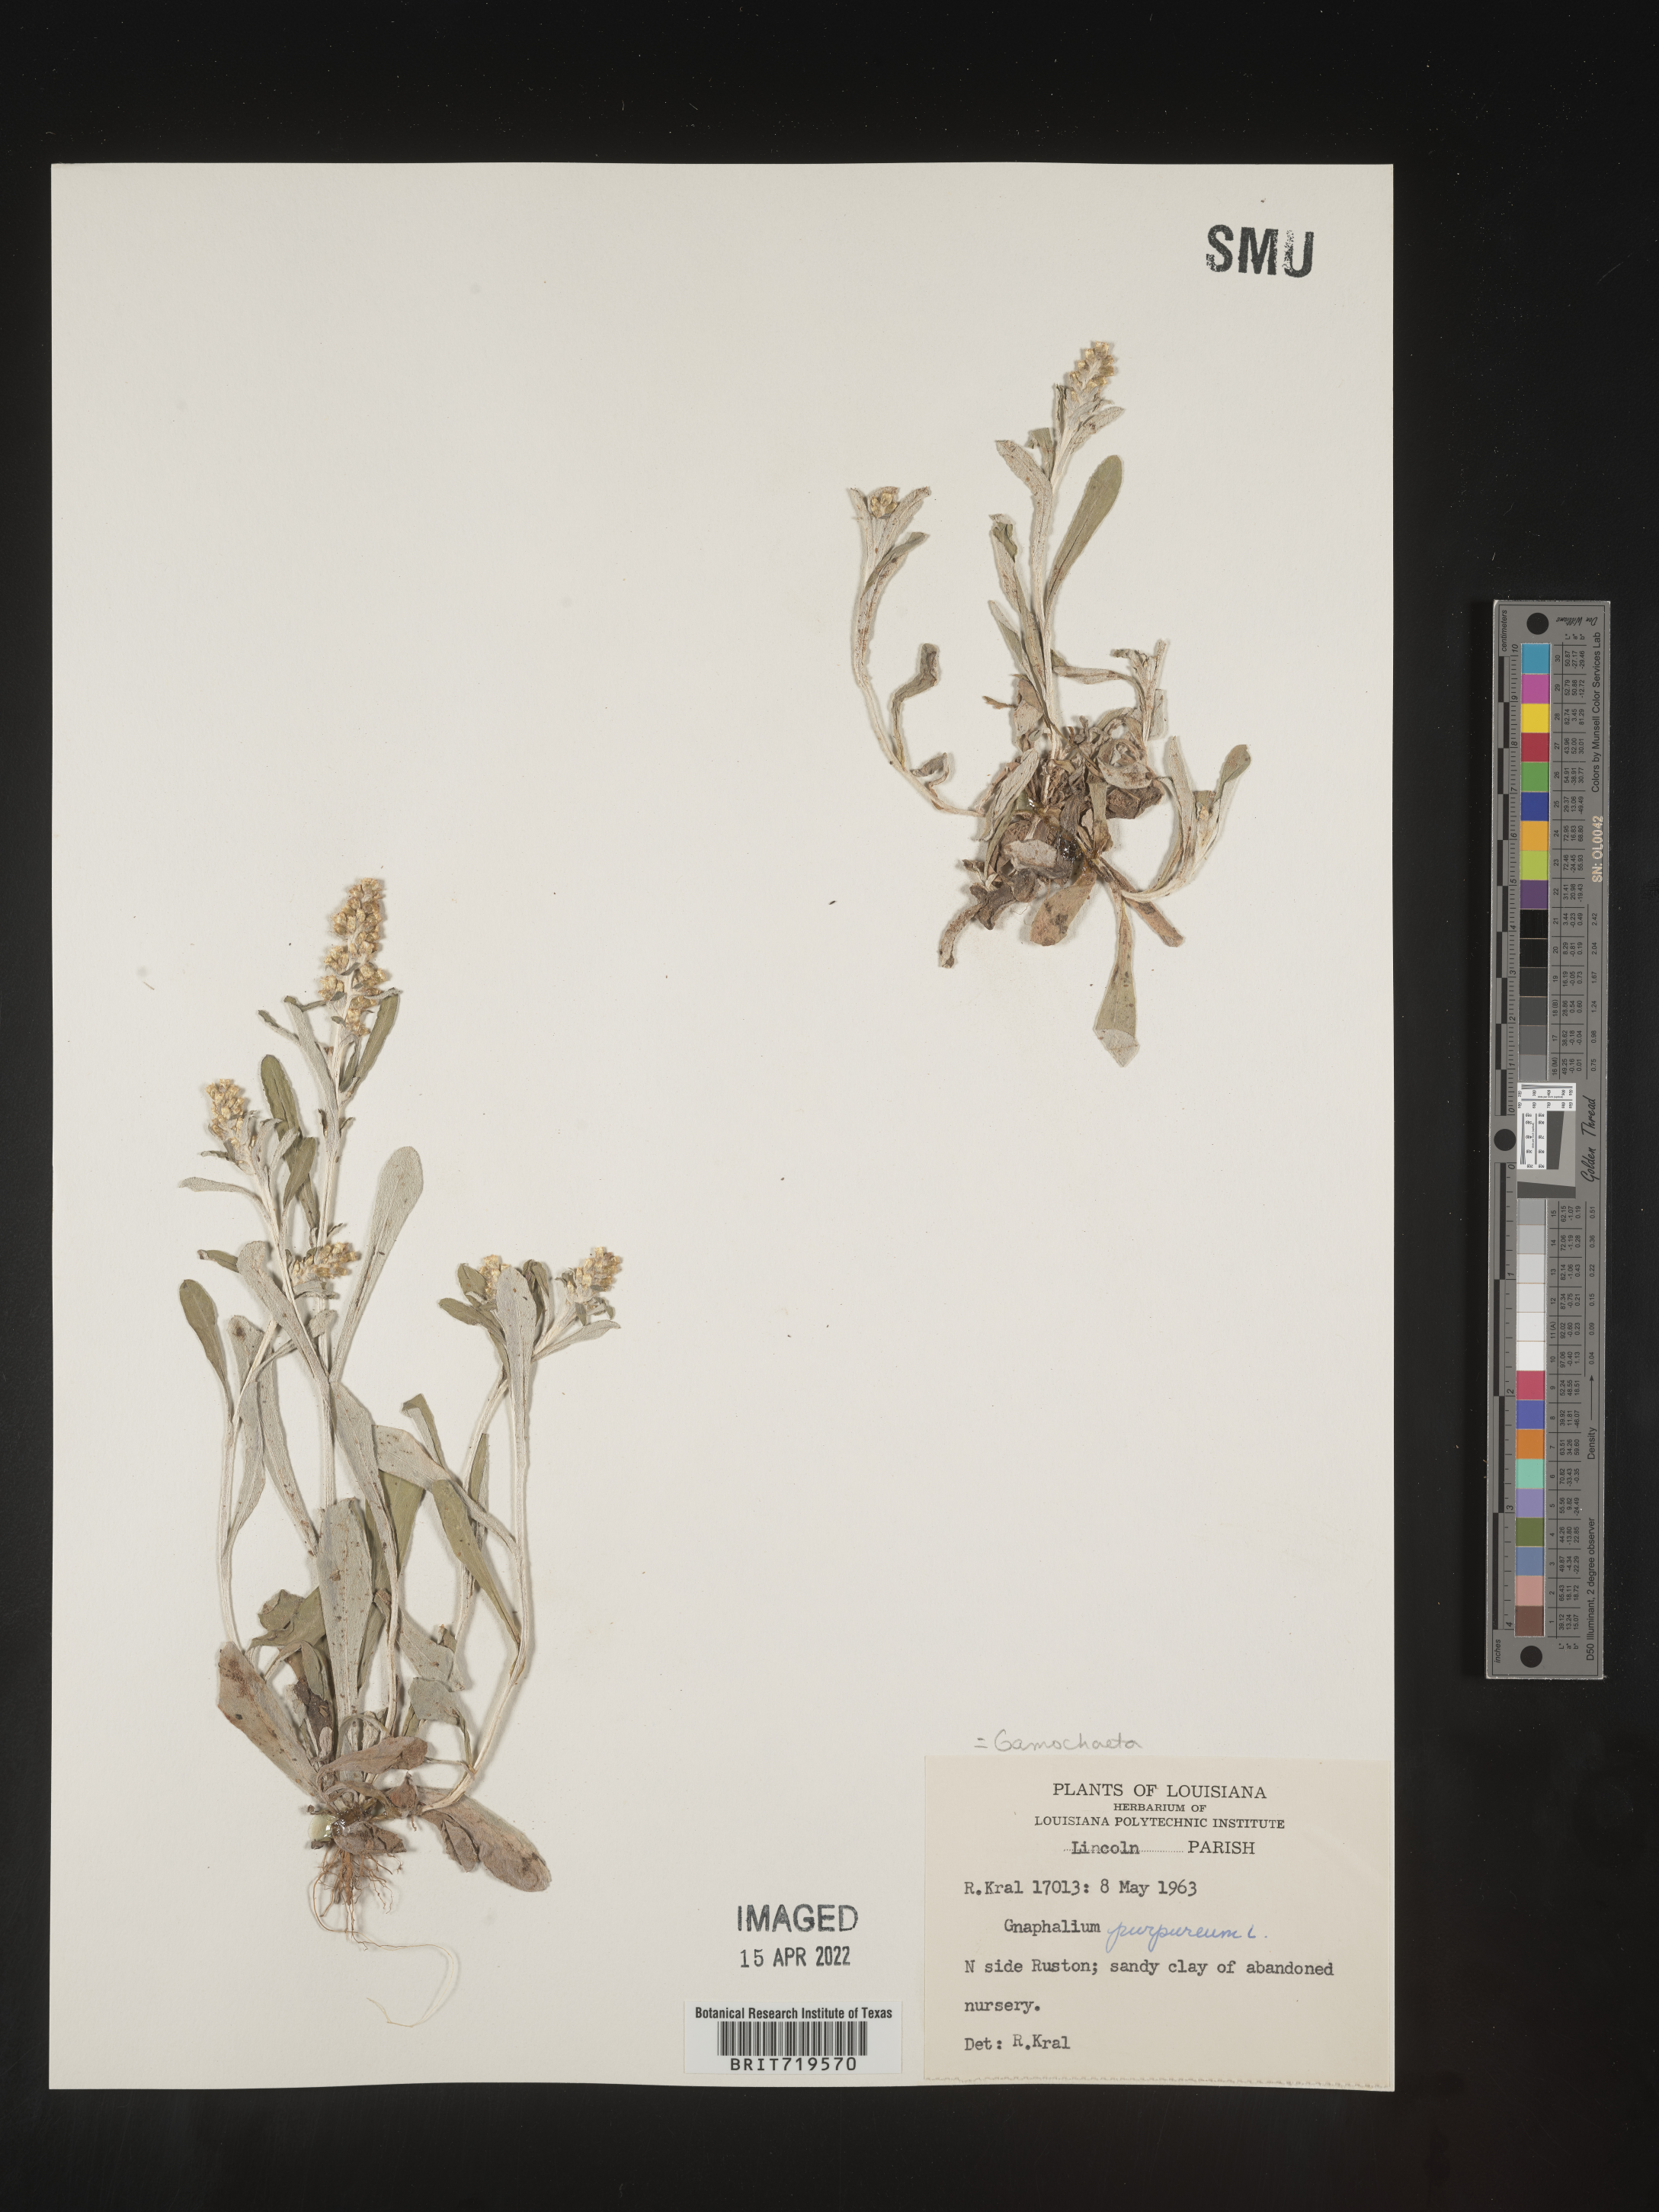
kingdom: Plantae
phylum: Tracheophyta
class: Magnoliopsida
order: Asterales
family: Asteraceae
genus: Gamochaeta
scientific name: Gamochaeta argyrinea
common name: Silvery cudweed
